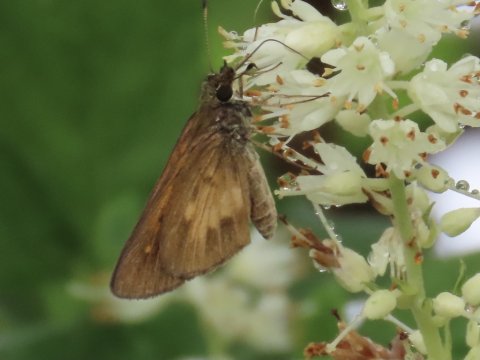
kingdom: Animalia
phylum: Arthropoda
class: Insecta
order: Lepidoptera
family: Hesperiidae
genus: Poanes
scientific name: Poanes viator
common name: Broad-winged Skipper
